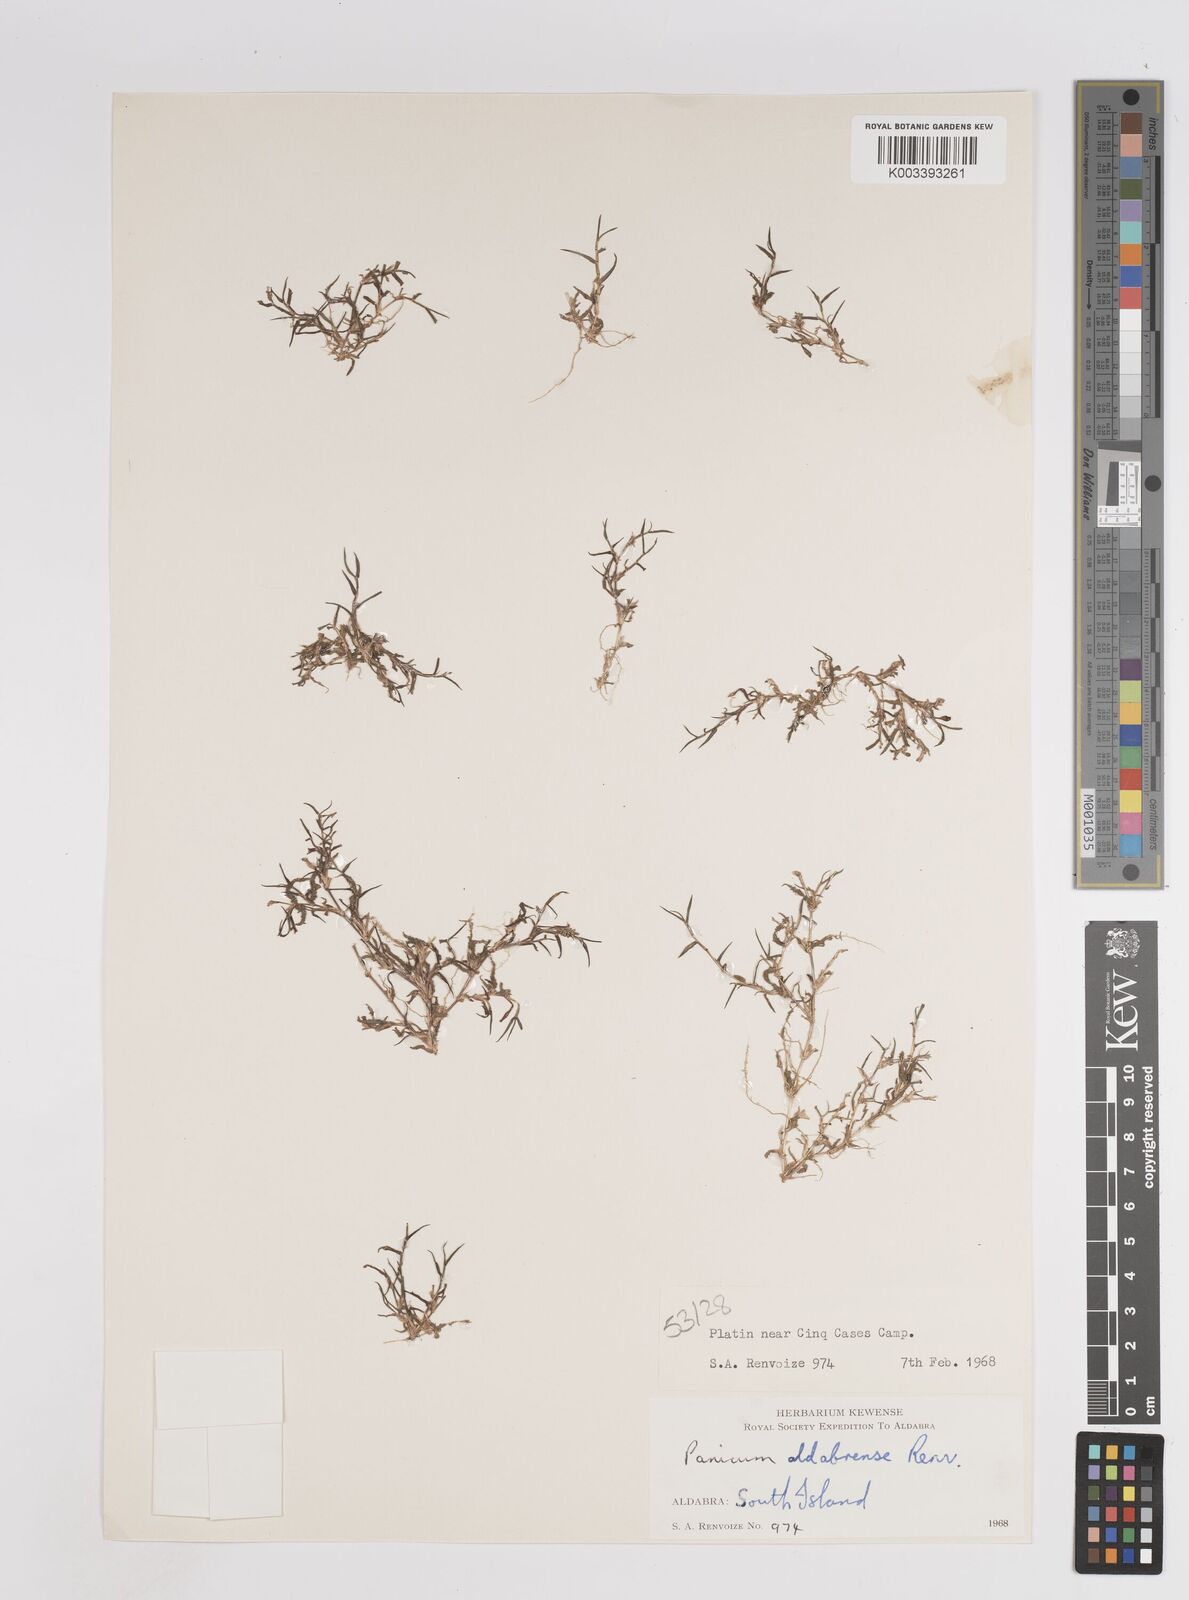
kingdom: Plantae
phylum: Tracheophyta
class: Liliopsida
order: Poales
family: Poaceae
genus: Panicum
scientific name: Panicum aldabrense
